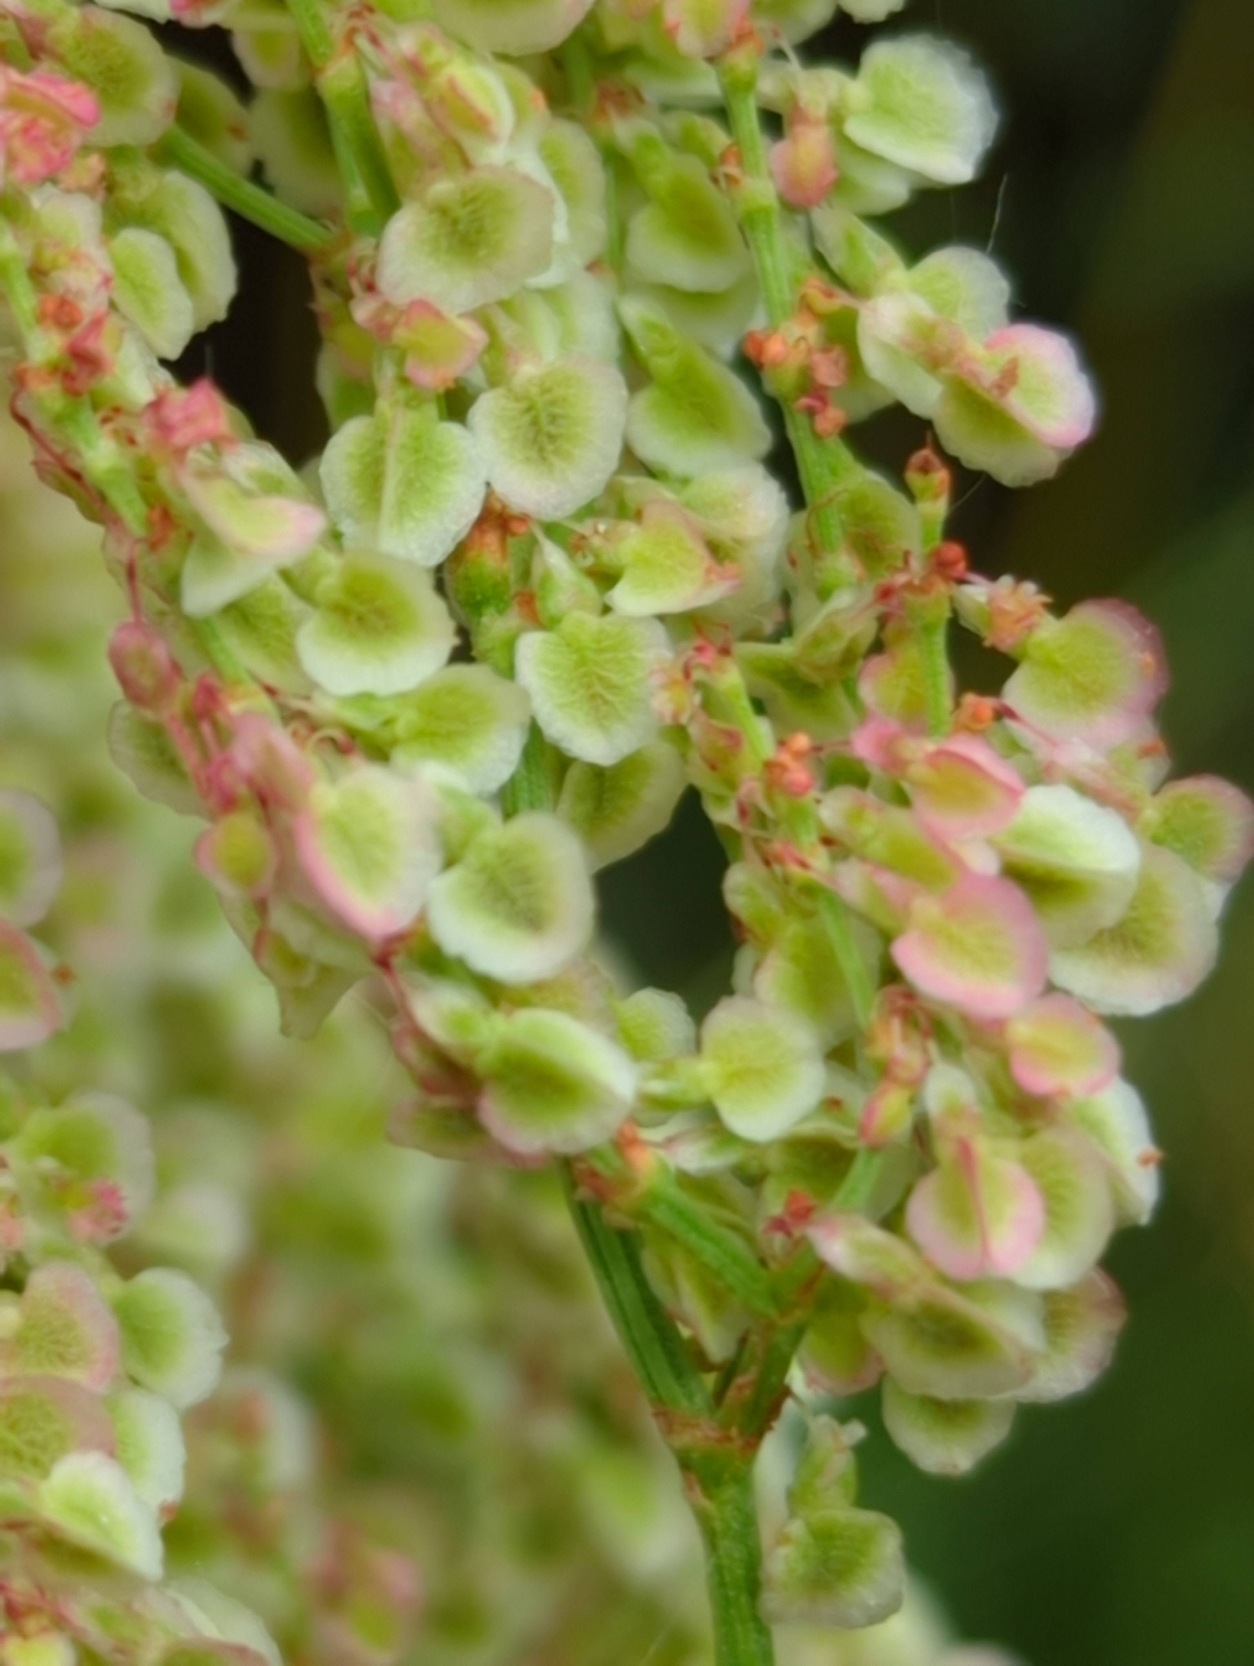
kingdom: Plantae
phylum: Tracheophyta
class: Magnoliopsida
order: Caryophyllales
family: Polygonaceae
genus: Rumex
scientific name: Rumex acetosa
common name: Almindelig syre
